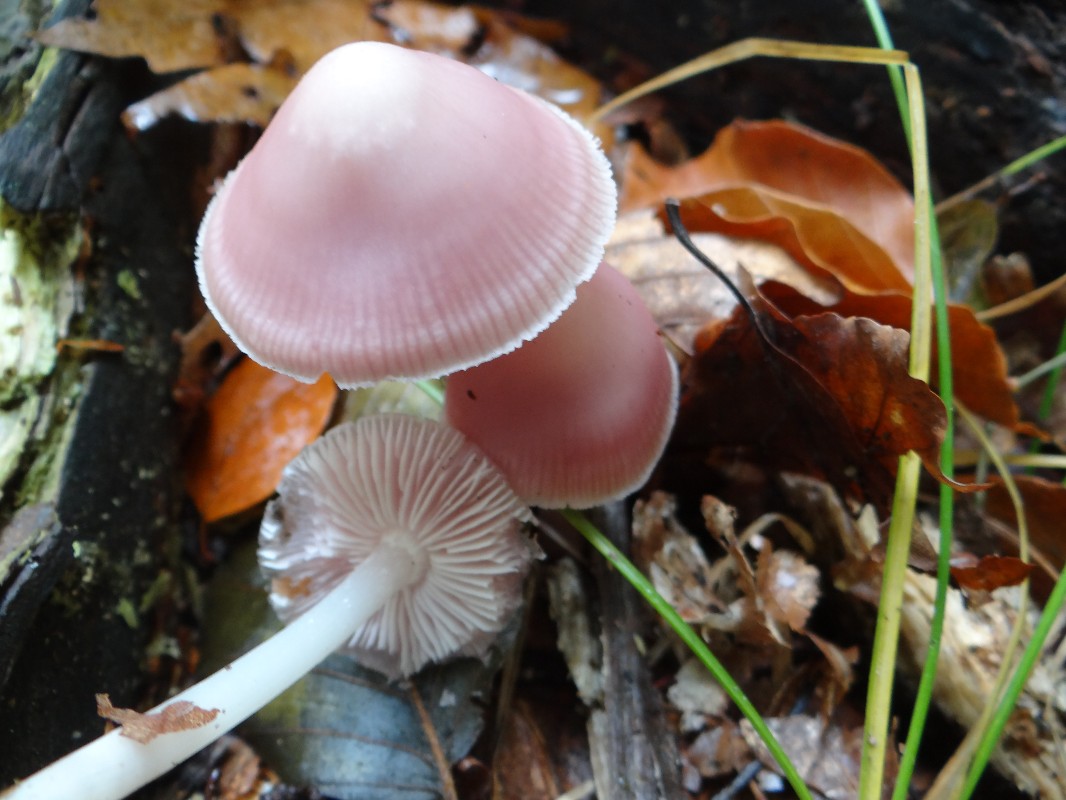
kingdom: Fungi
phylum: Basidiomycota
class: Agaricomycetes
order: Agaricales
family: Mycenaceae
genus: Mycena
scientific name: Mycena rosea
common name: rosa huesvamp
